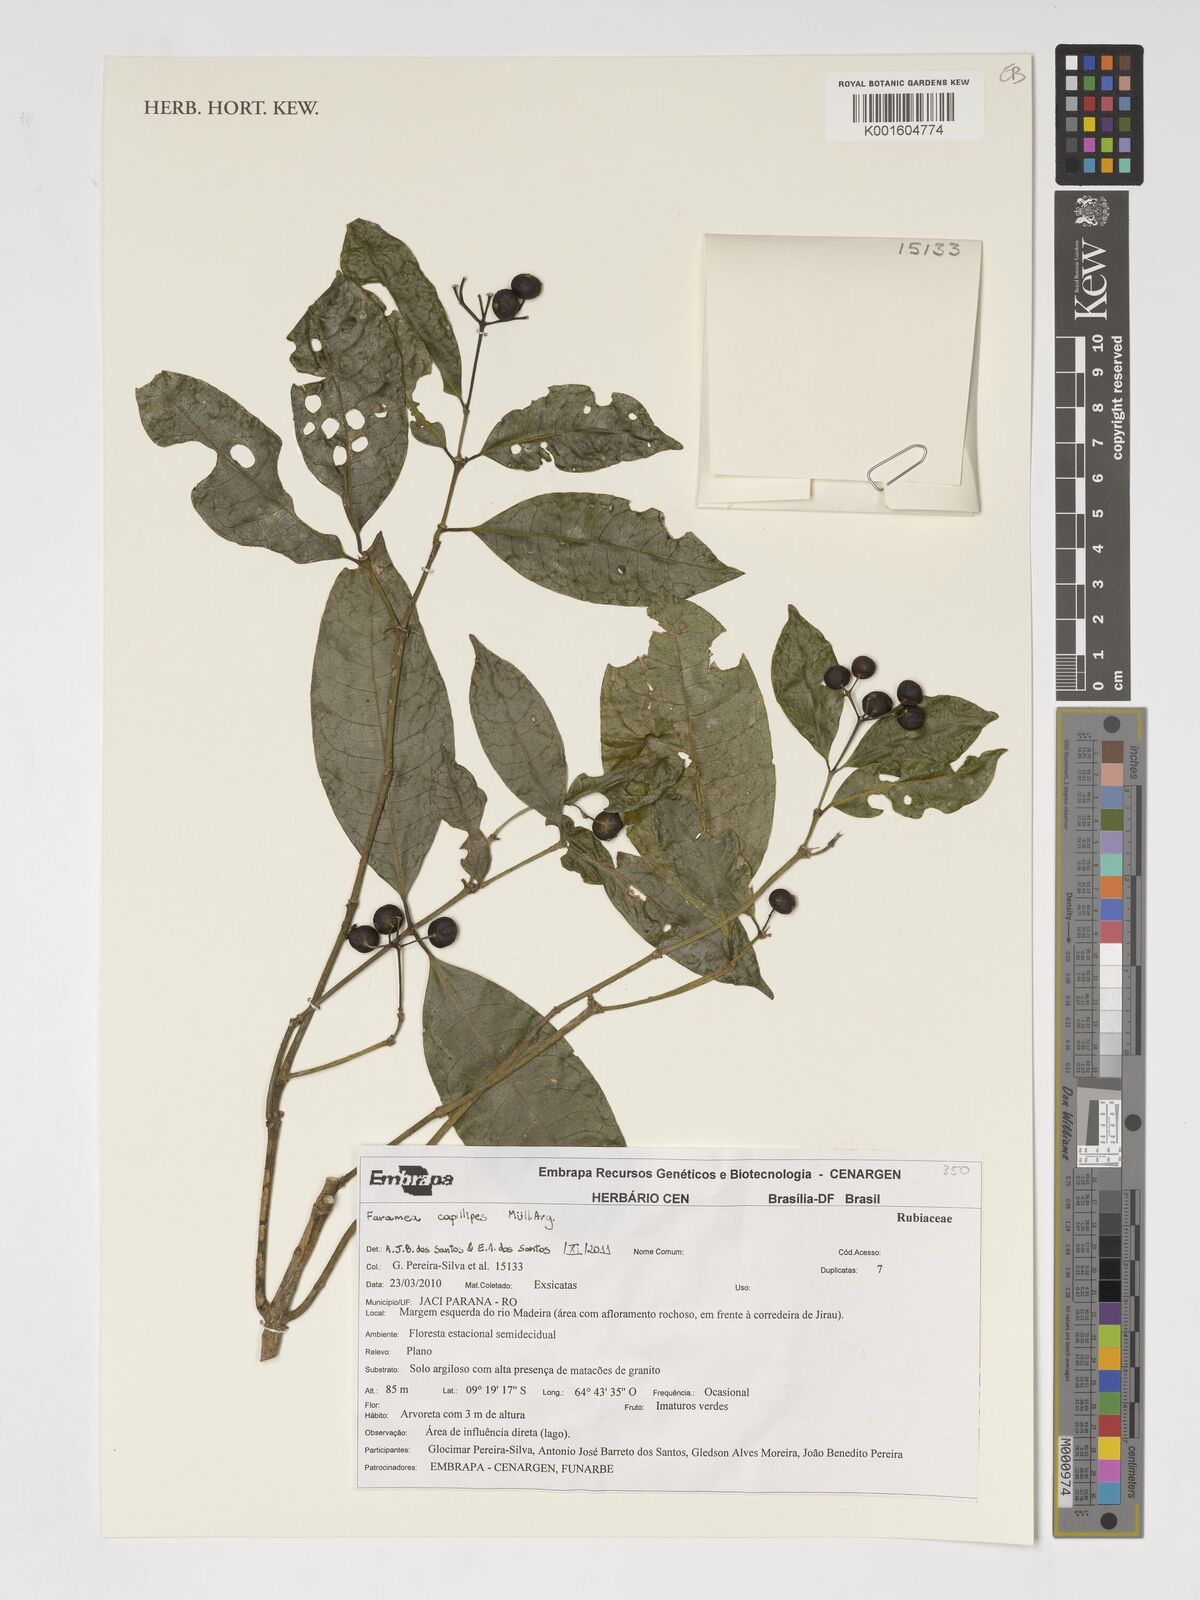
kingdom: Plantae
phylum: Tracheophyta
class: Magnoliopsida
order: Gentianales
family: Rubiaceae
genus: Faramea
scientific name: Faramea capillipes
